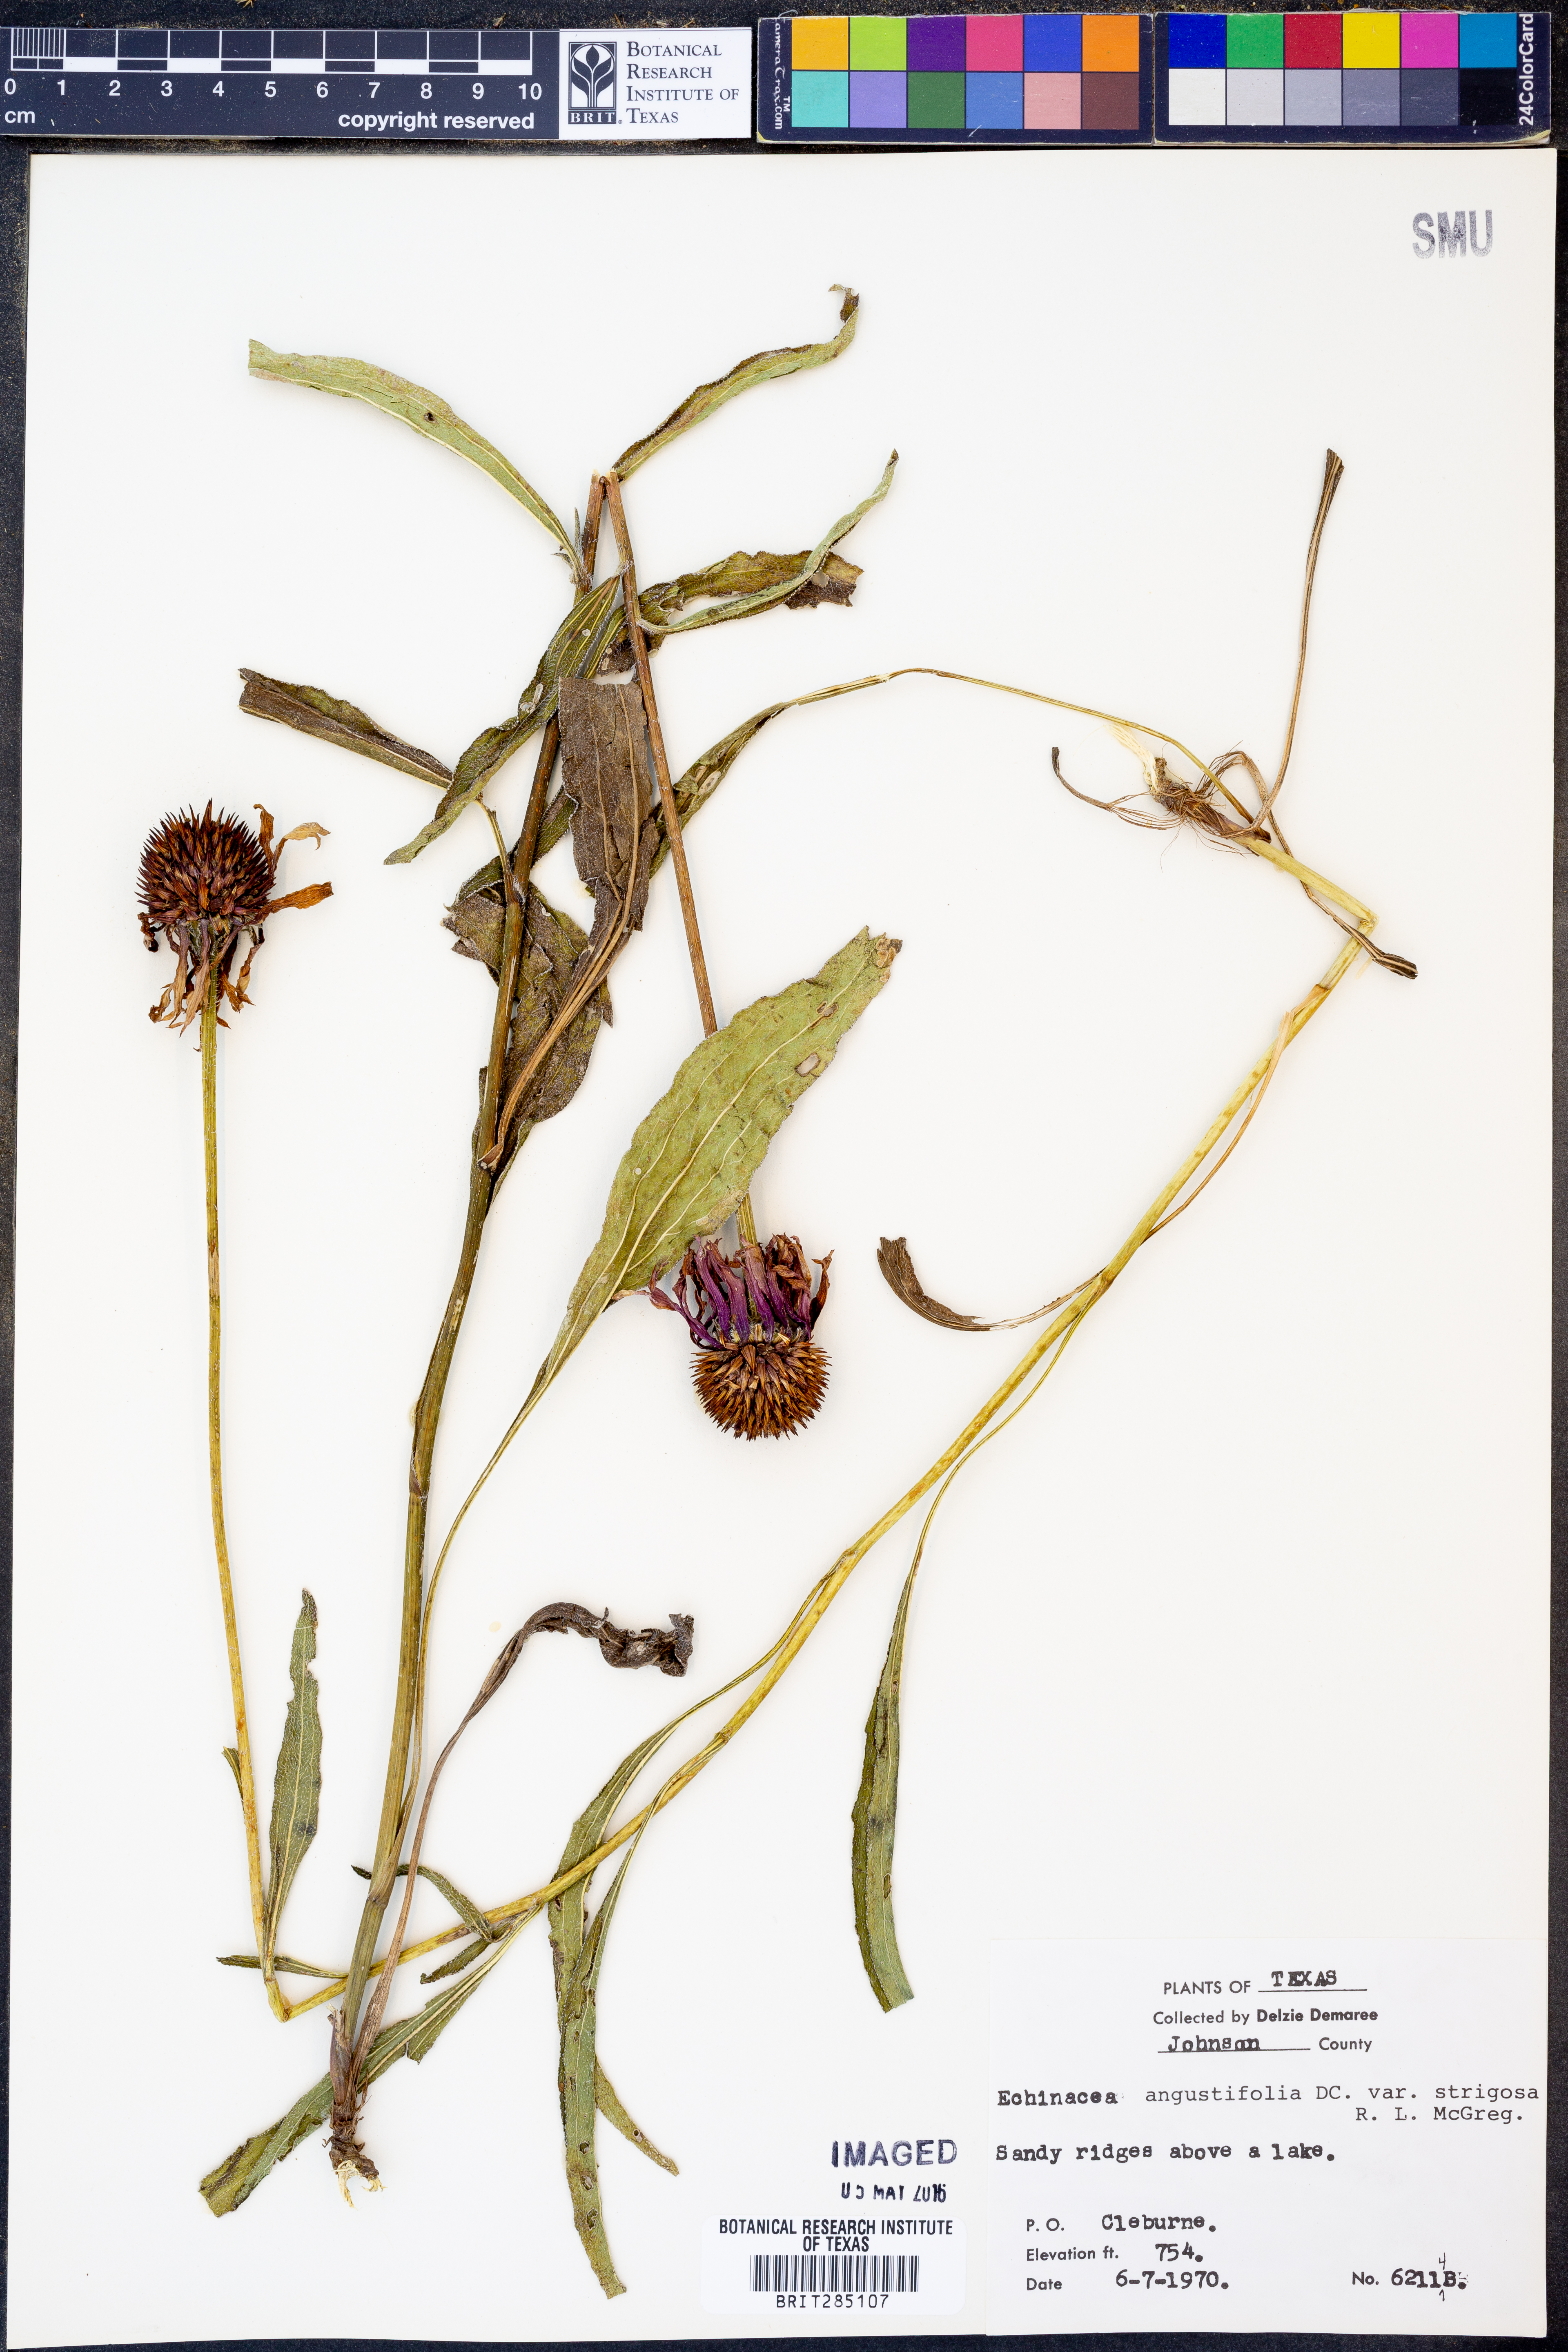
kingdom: Plantae
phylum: Tracheophyta
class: Magnoliopsida
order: Asterales
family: Asteraceae
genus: Echinacea
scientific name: Echinacea angustifolia
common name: Black-sampson echinacea
